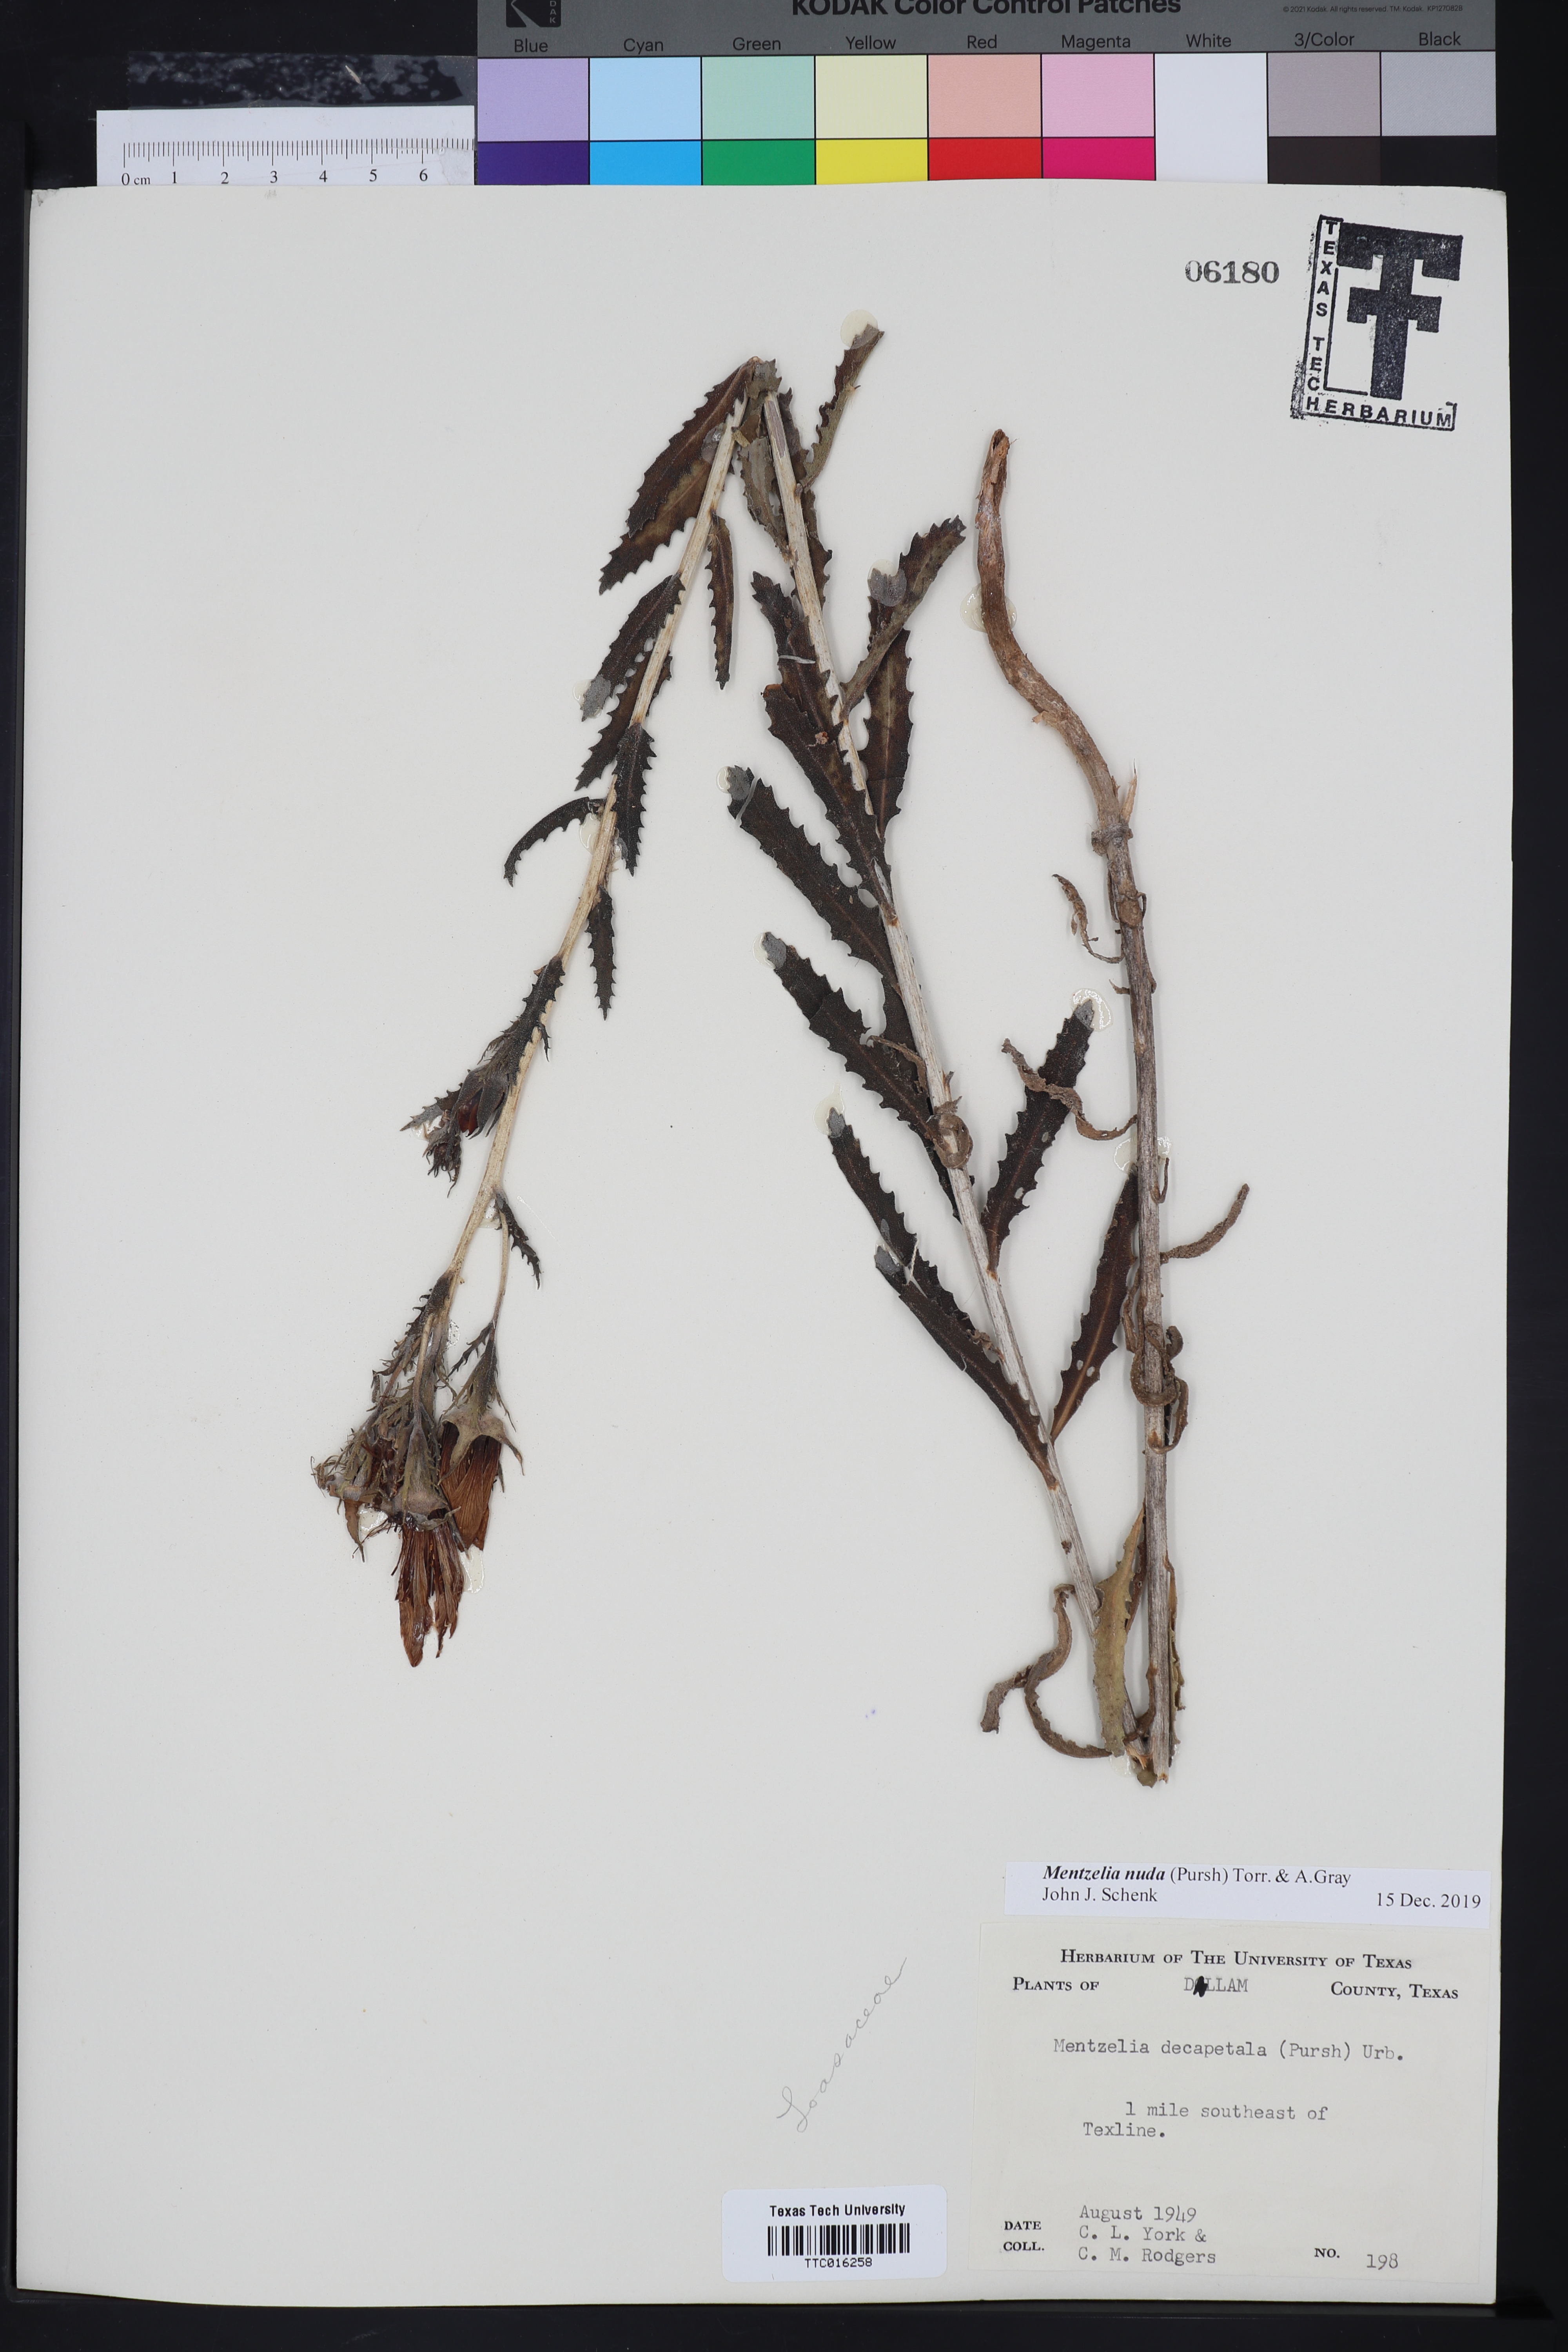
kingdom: Plantae
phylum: Tracheophyta
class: Magnoliopsida
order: Cornales
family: Loasaceae
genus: Mentzelia
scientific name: Mentzelia nuda
